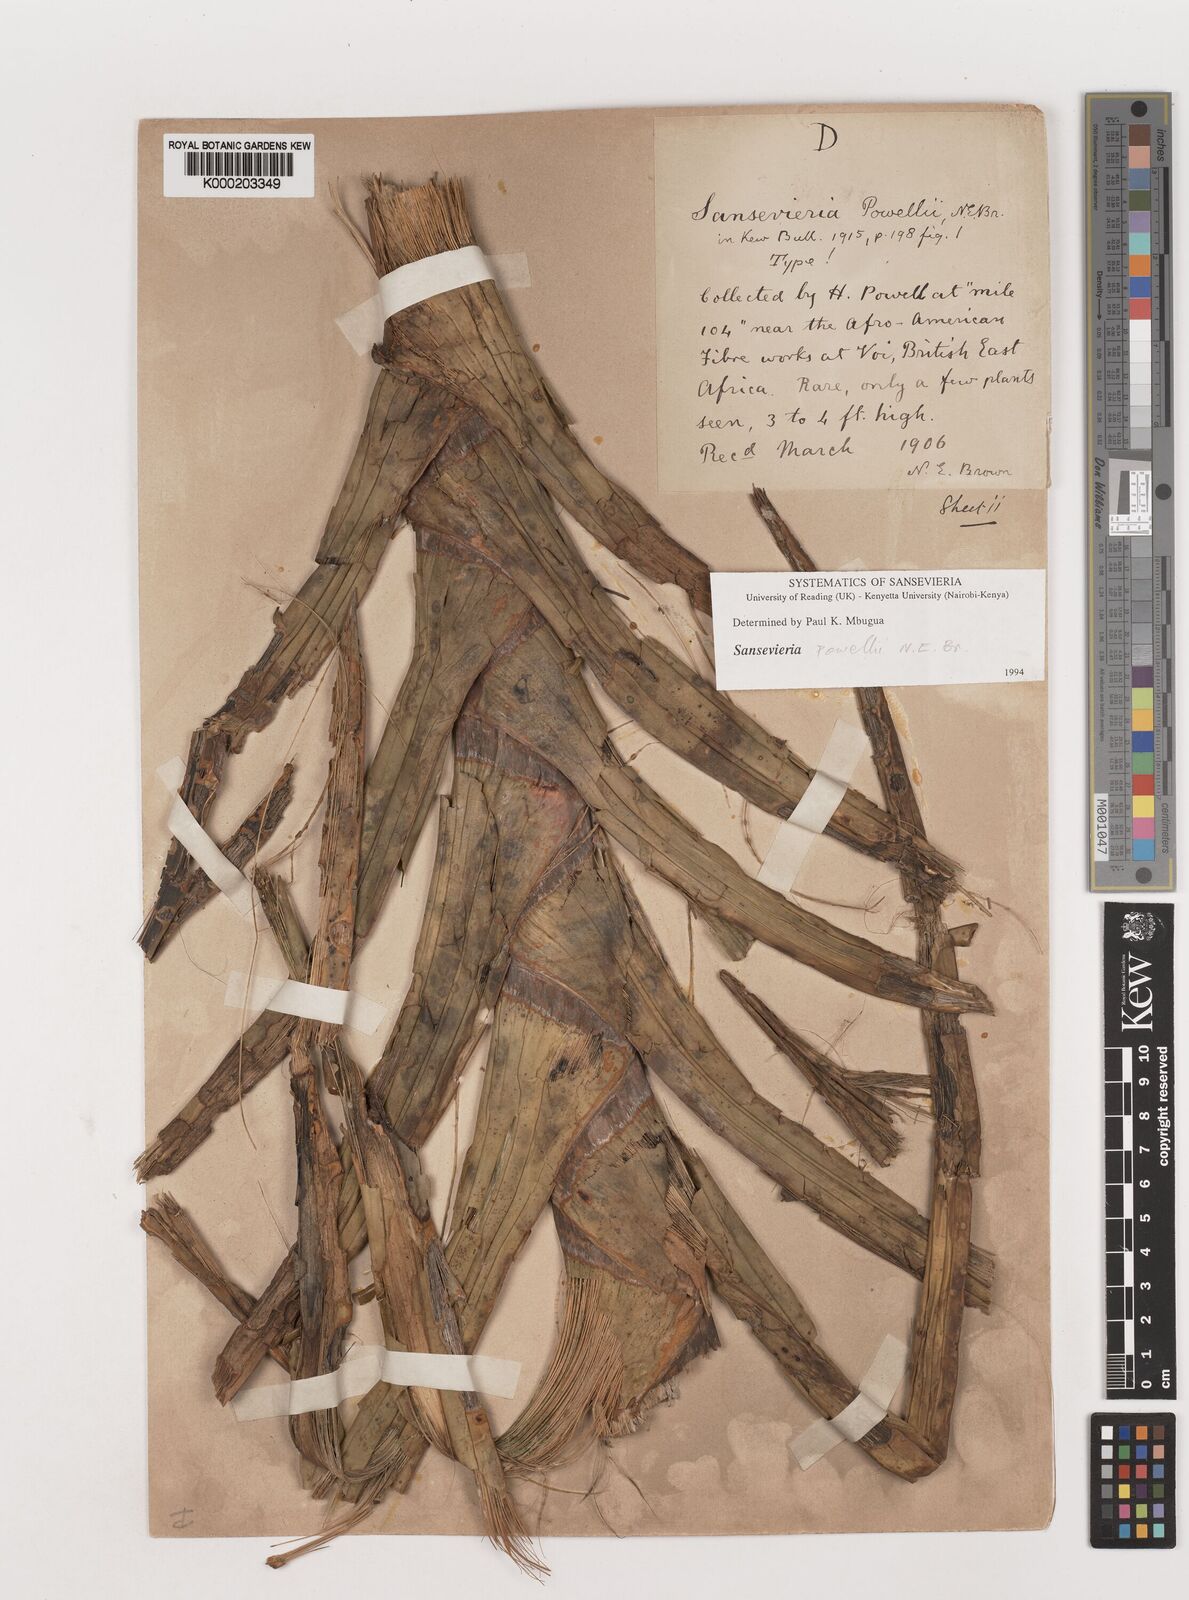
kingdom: Plantae
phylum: Tracheophyta
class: Liliopsida
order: Asparagales
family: Asparagaceae
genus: Dracaena
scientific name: Dracaena powellii
